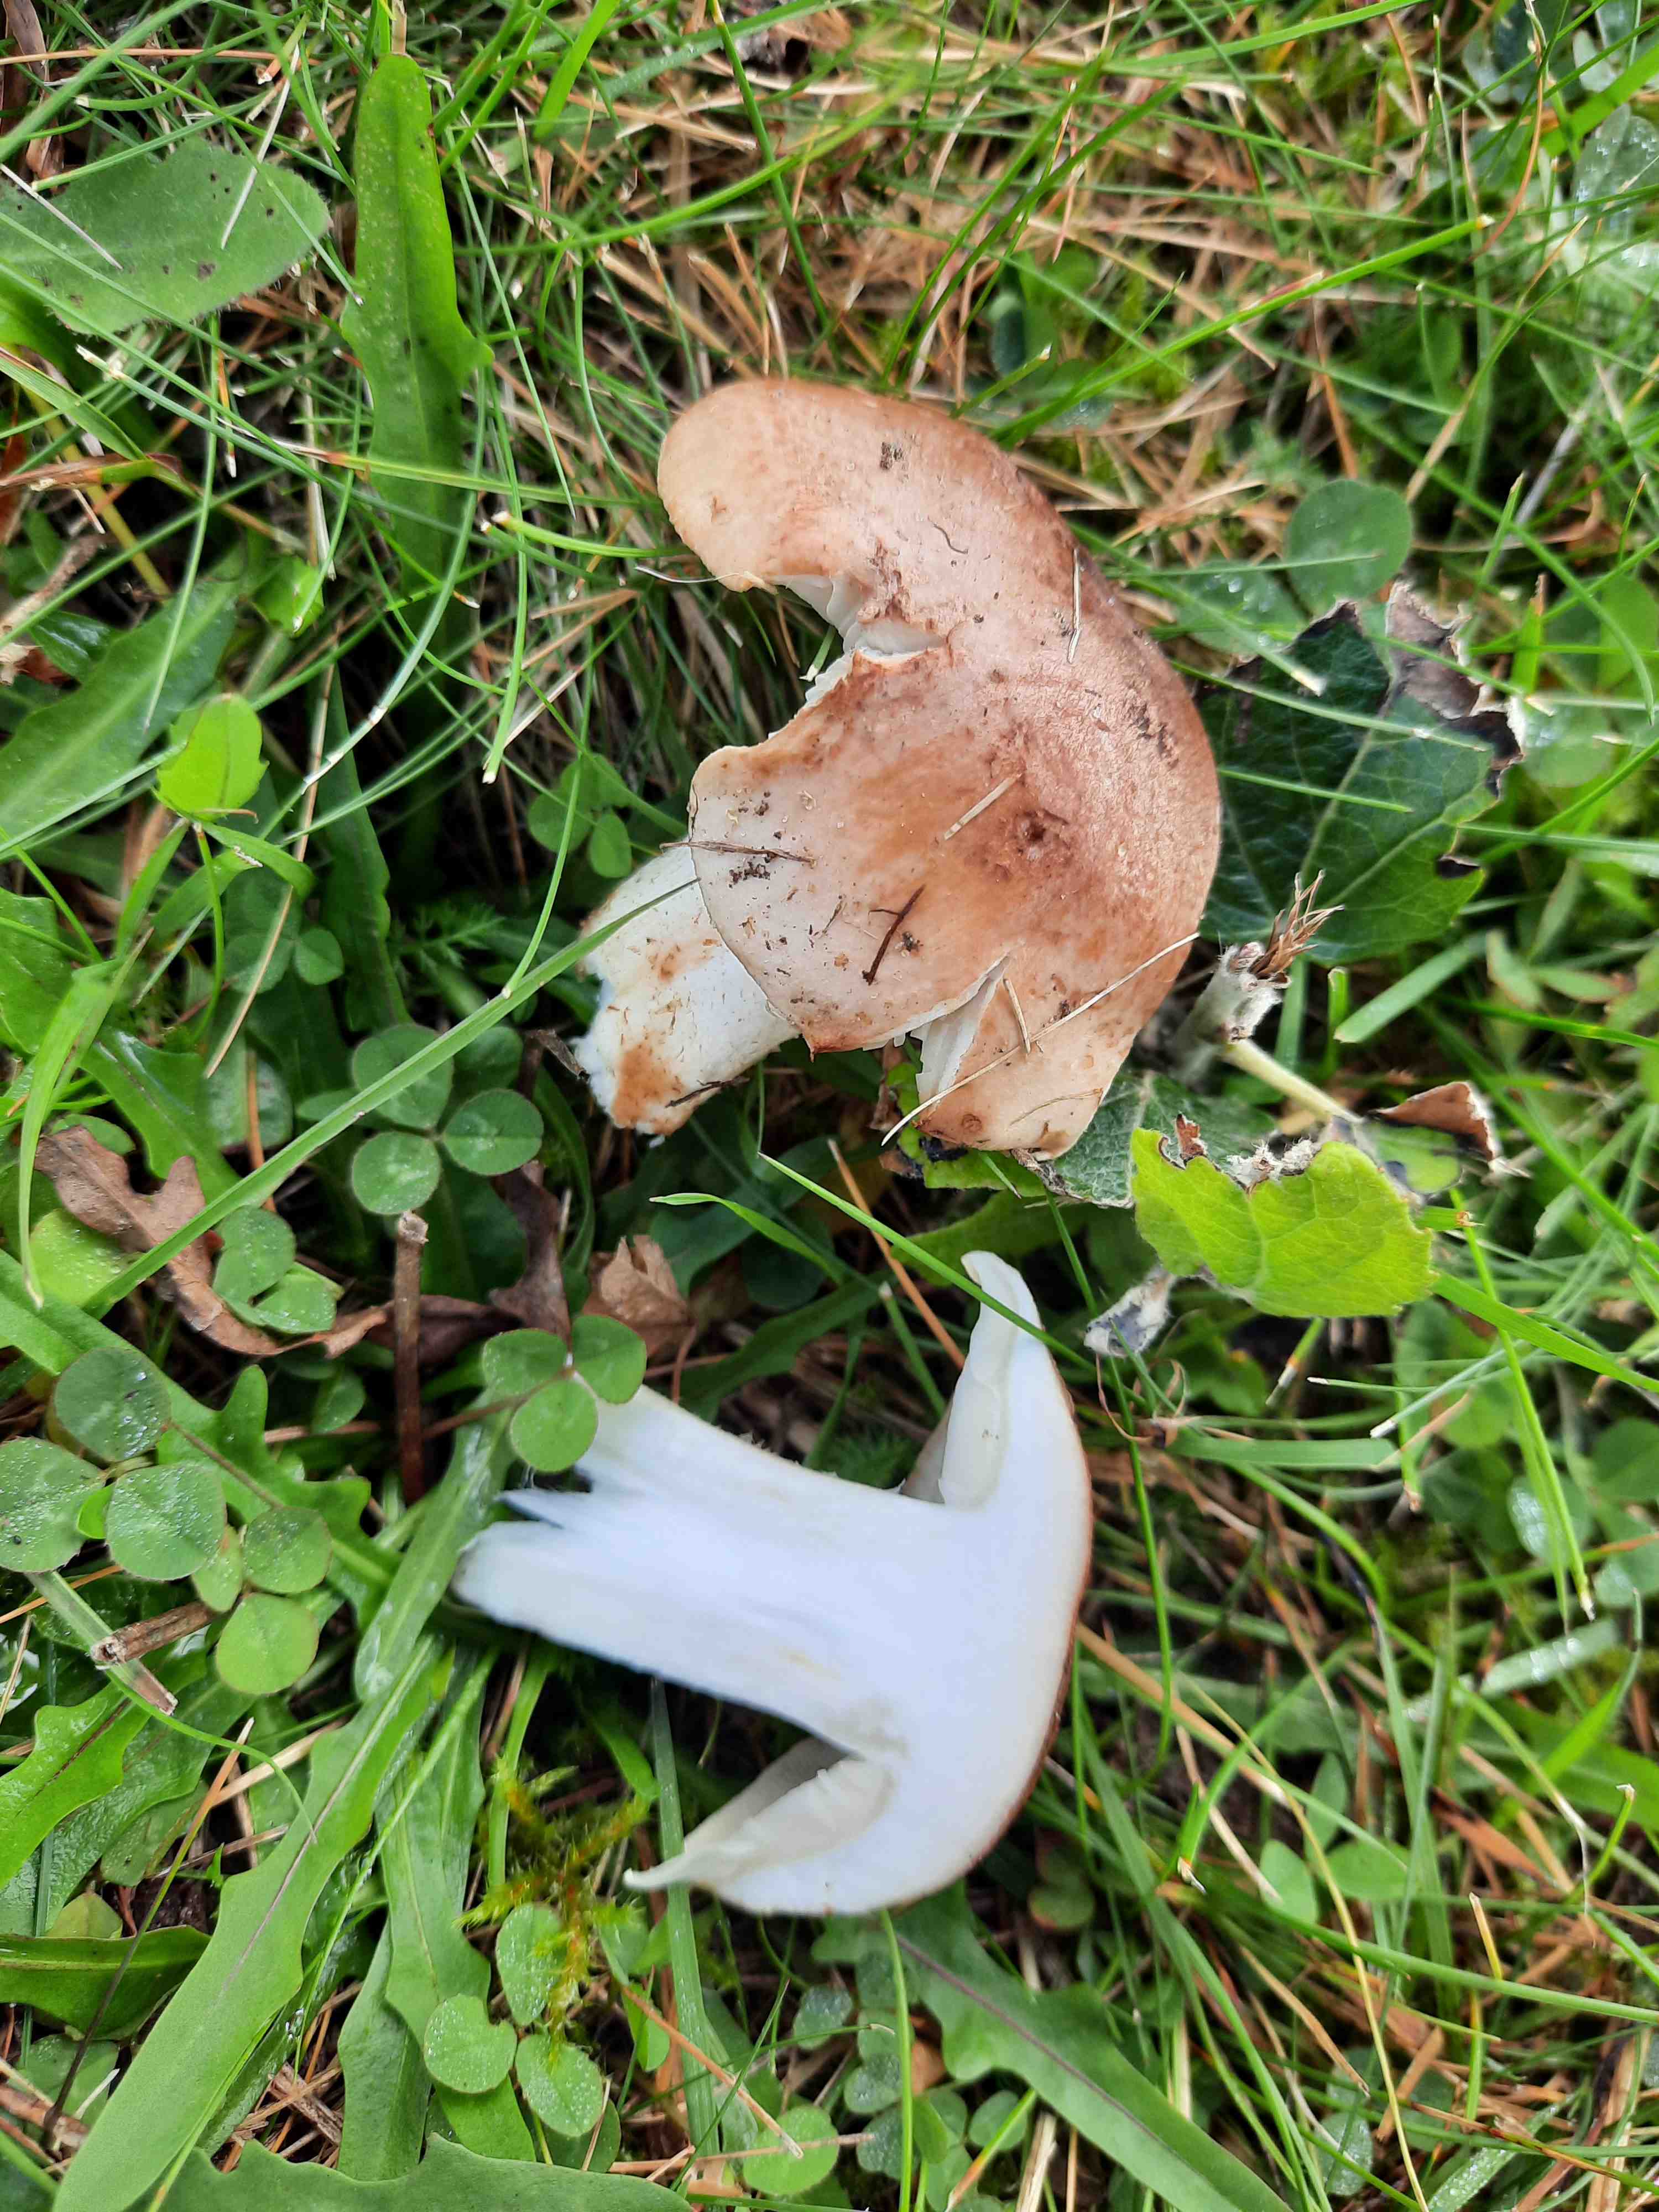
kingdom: Fungi
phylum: Basidiomycota
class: Agaricomycetes
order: Agaricales
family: Tricholomataceae
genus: Tricholoma
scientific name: Tricholoma populinum
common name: poppel-ridderhat
